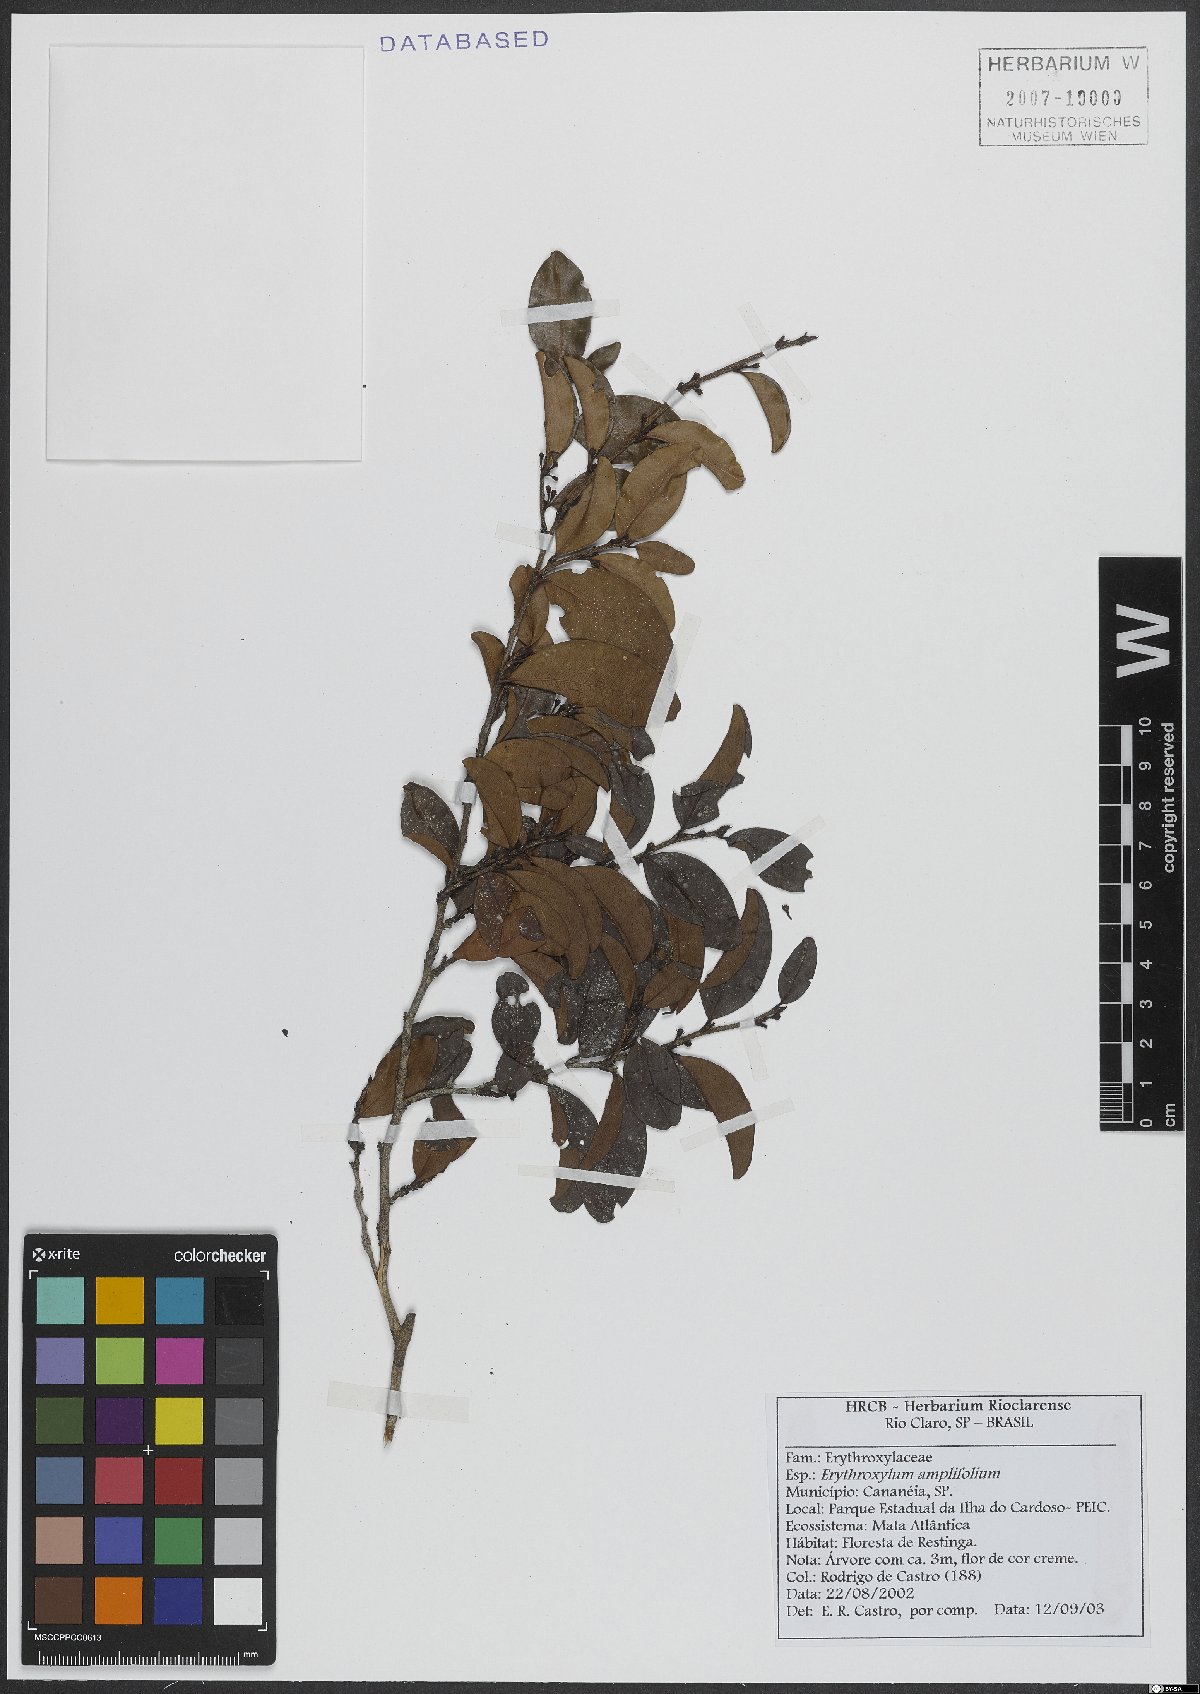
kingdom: Plantae
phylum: Tracheophyta
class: Magnoliopsida
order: Malpighiales
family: Erythroxylaceae
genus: Erythroxylum
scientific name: Erythroxylum umbu
